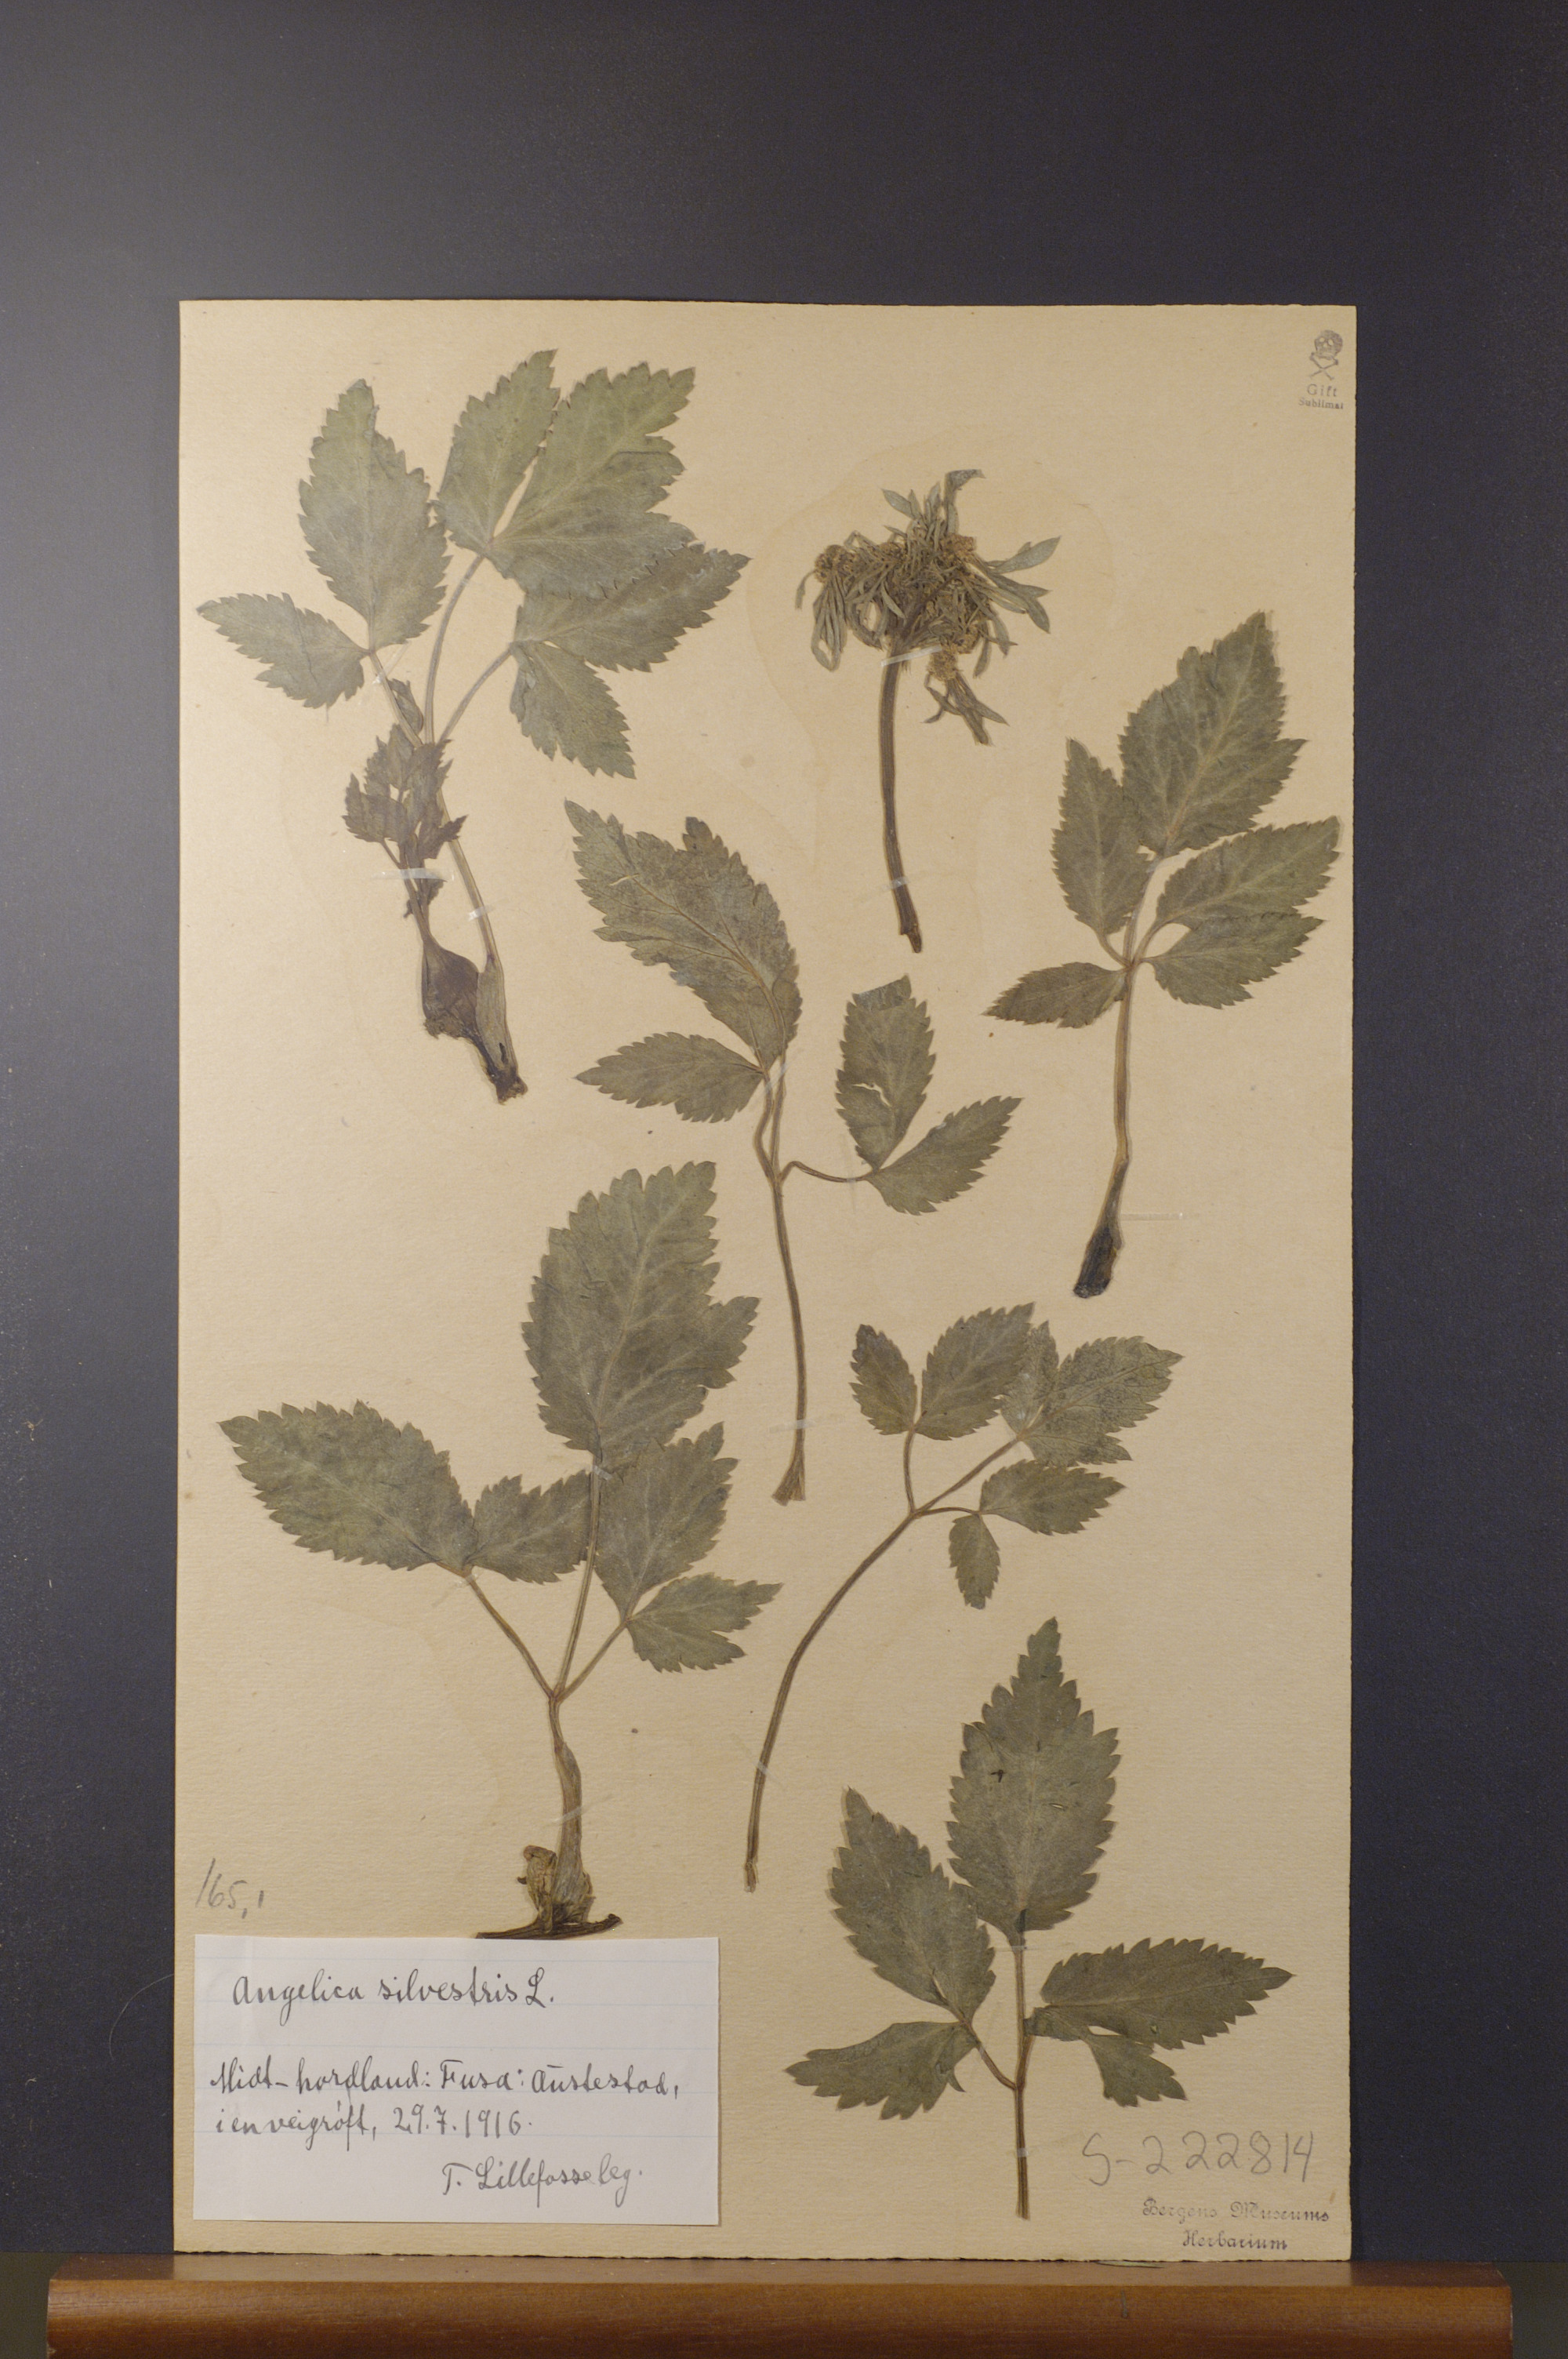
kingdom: Plantae
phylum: Tracheophyta
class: Magnoliopsida
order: Apiales
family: Apiaceae
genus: Angelica
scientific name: Angelica sylvestris
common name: Wild angelica
